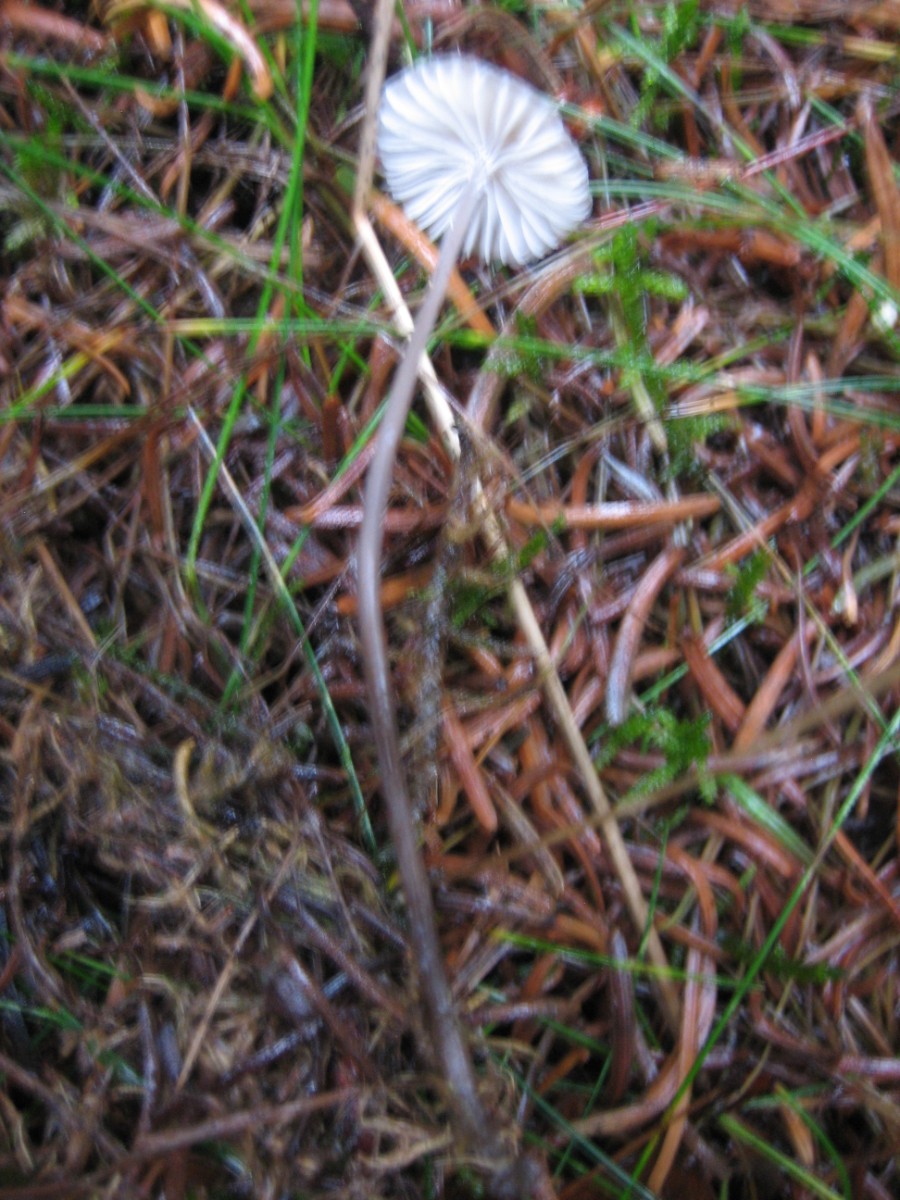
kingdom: Fungi
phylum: Basidiomycota
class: Agaricomycetes
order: Agaricales
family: Mycenaceae
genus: Mycena
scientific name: Mycena
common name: huesvamp
